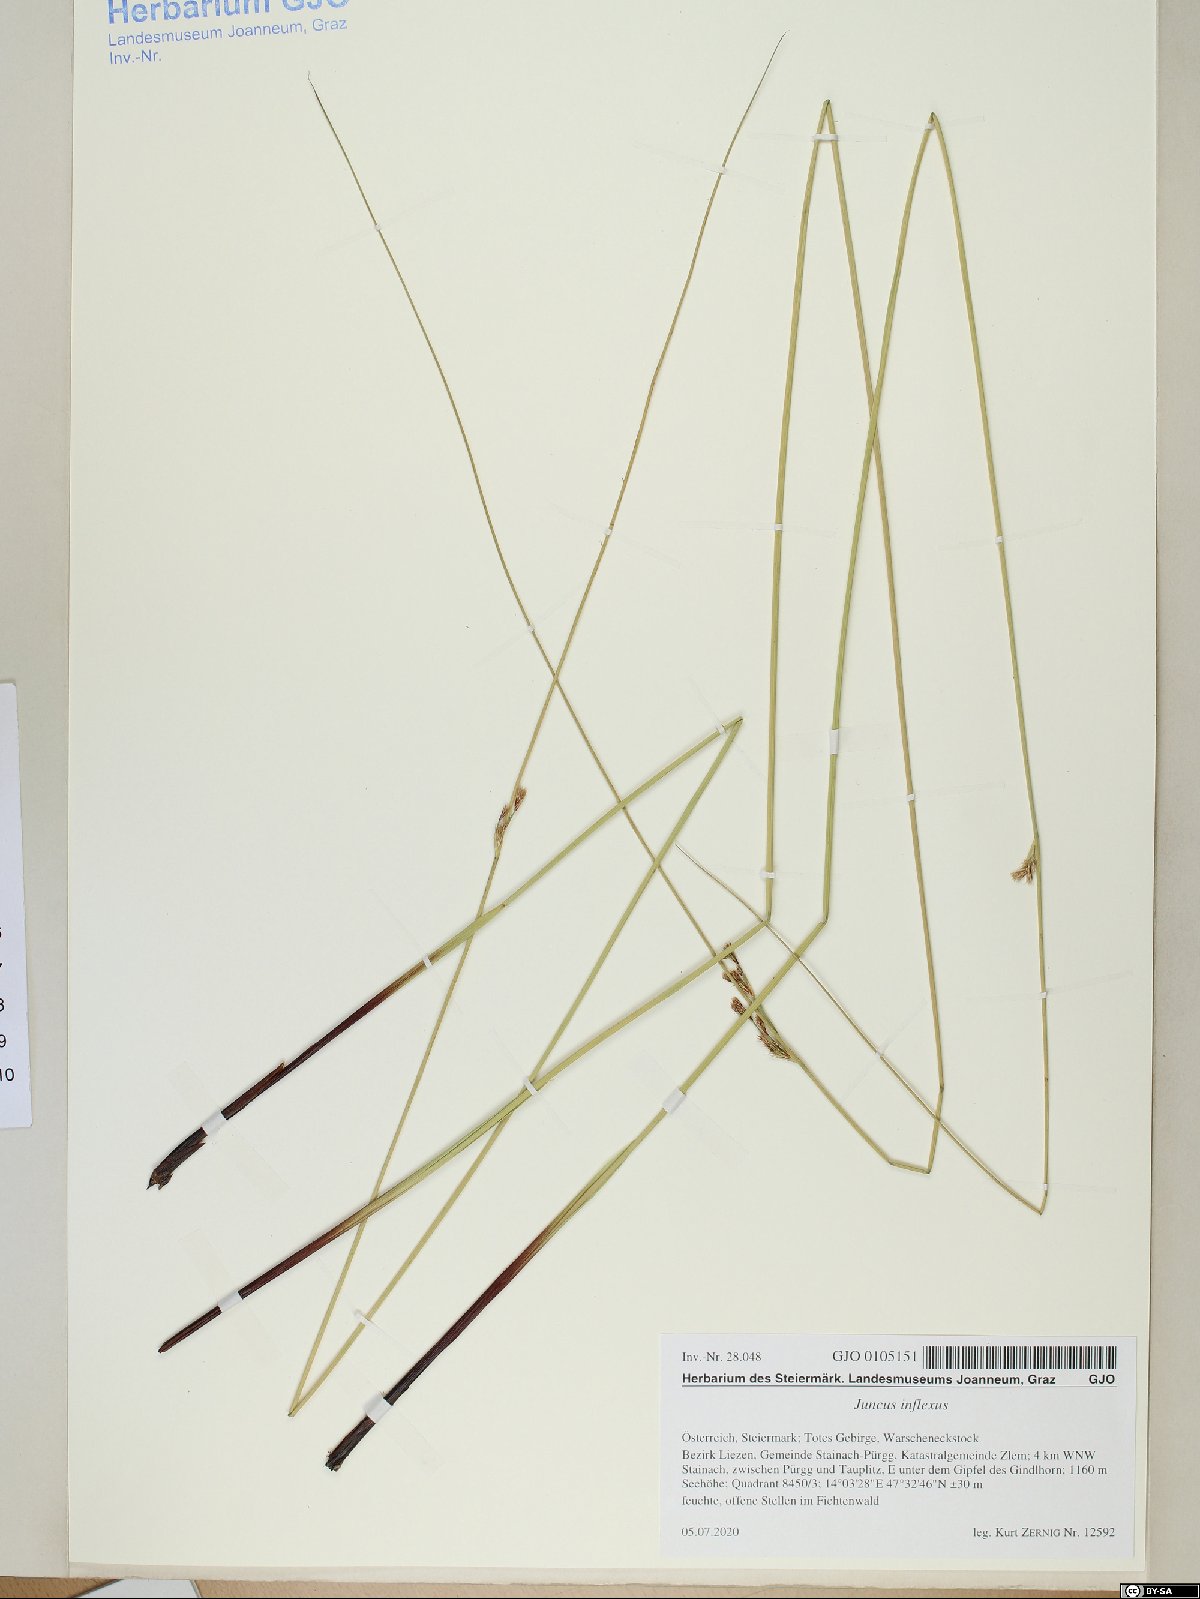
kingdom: Plantae
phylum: Tracheophyta
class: Liliopsida
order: Poales
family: Juncaceae
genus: Juncus
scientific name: Juncus inflexus
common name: Hard rush
